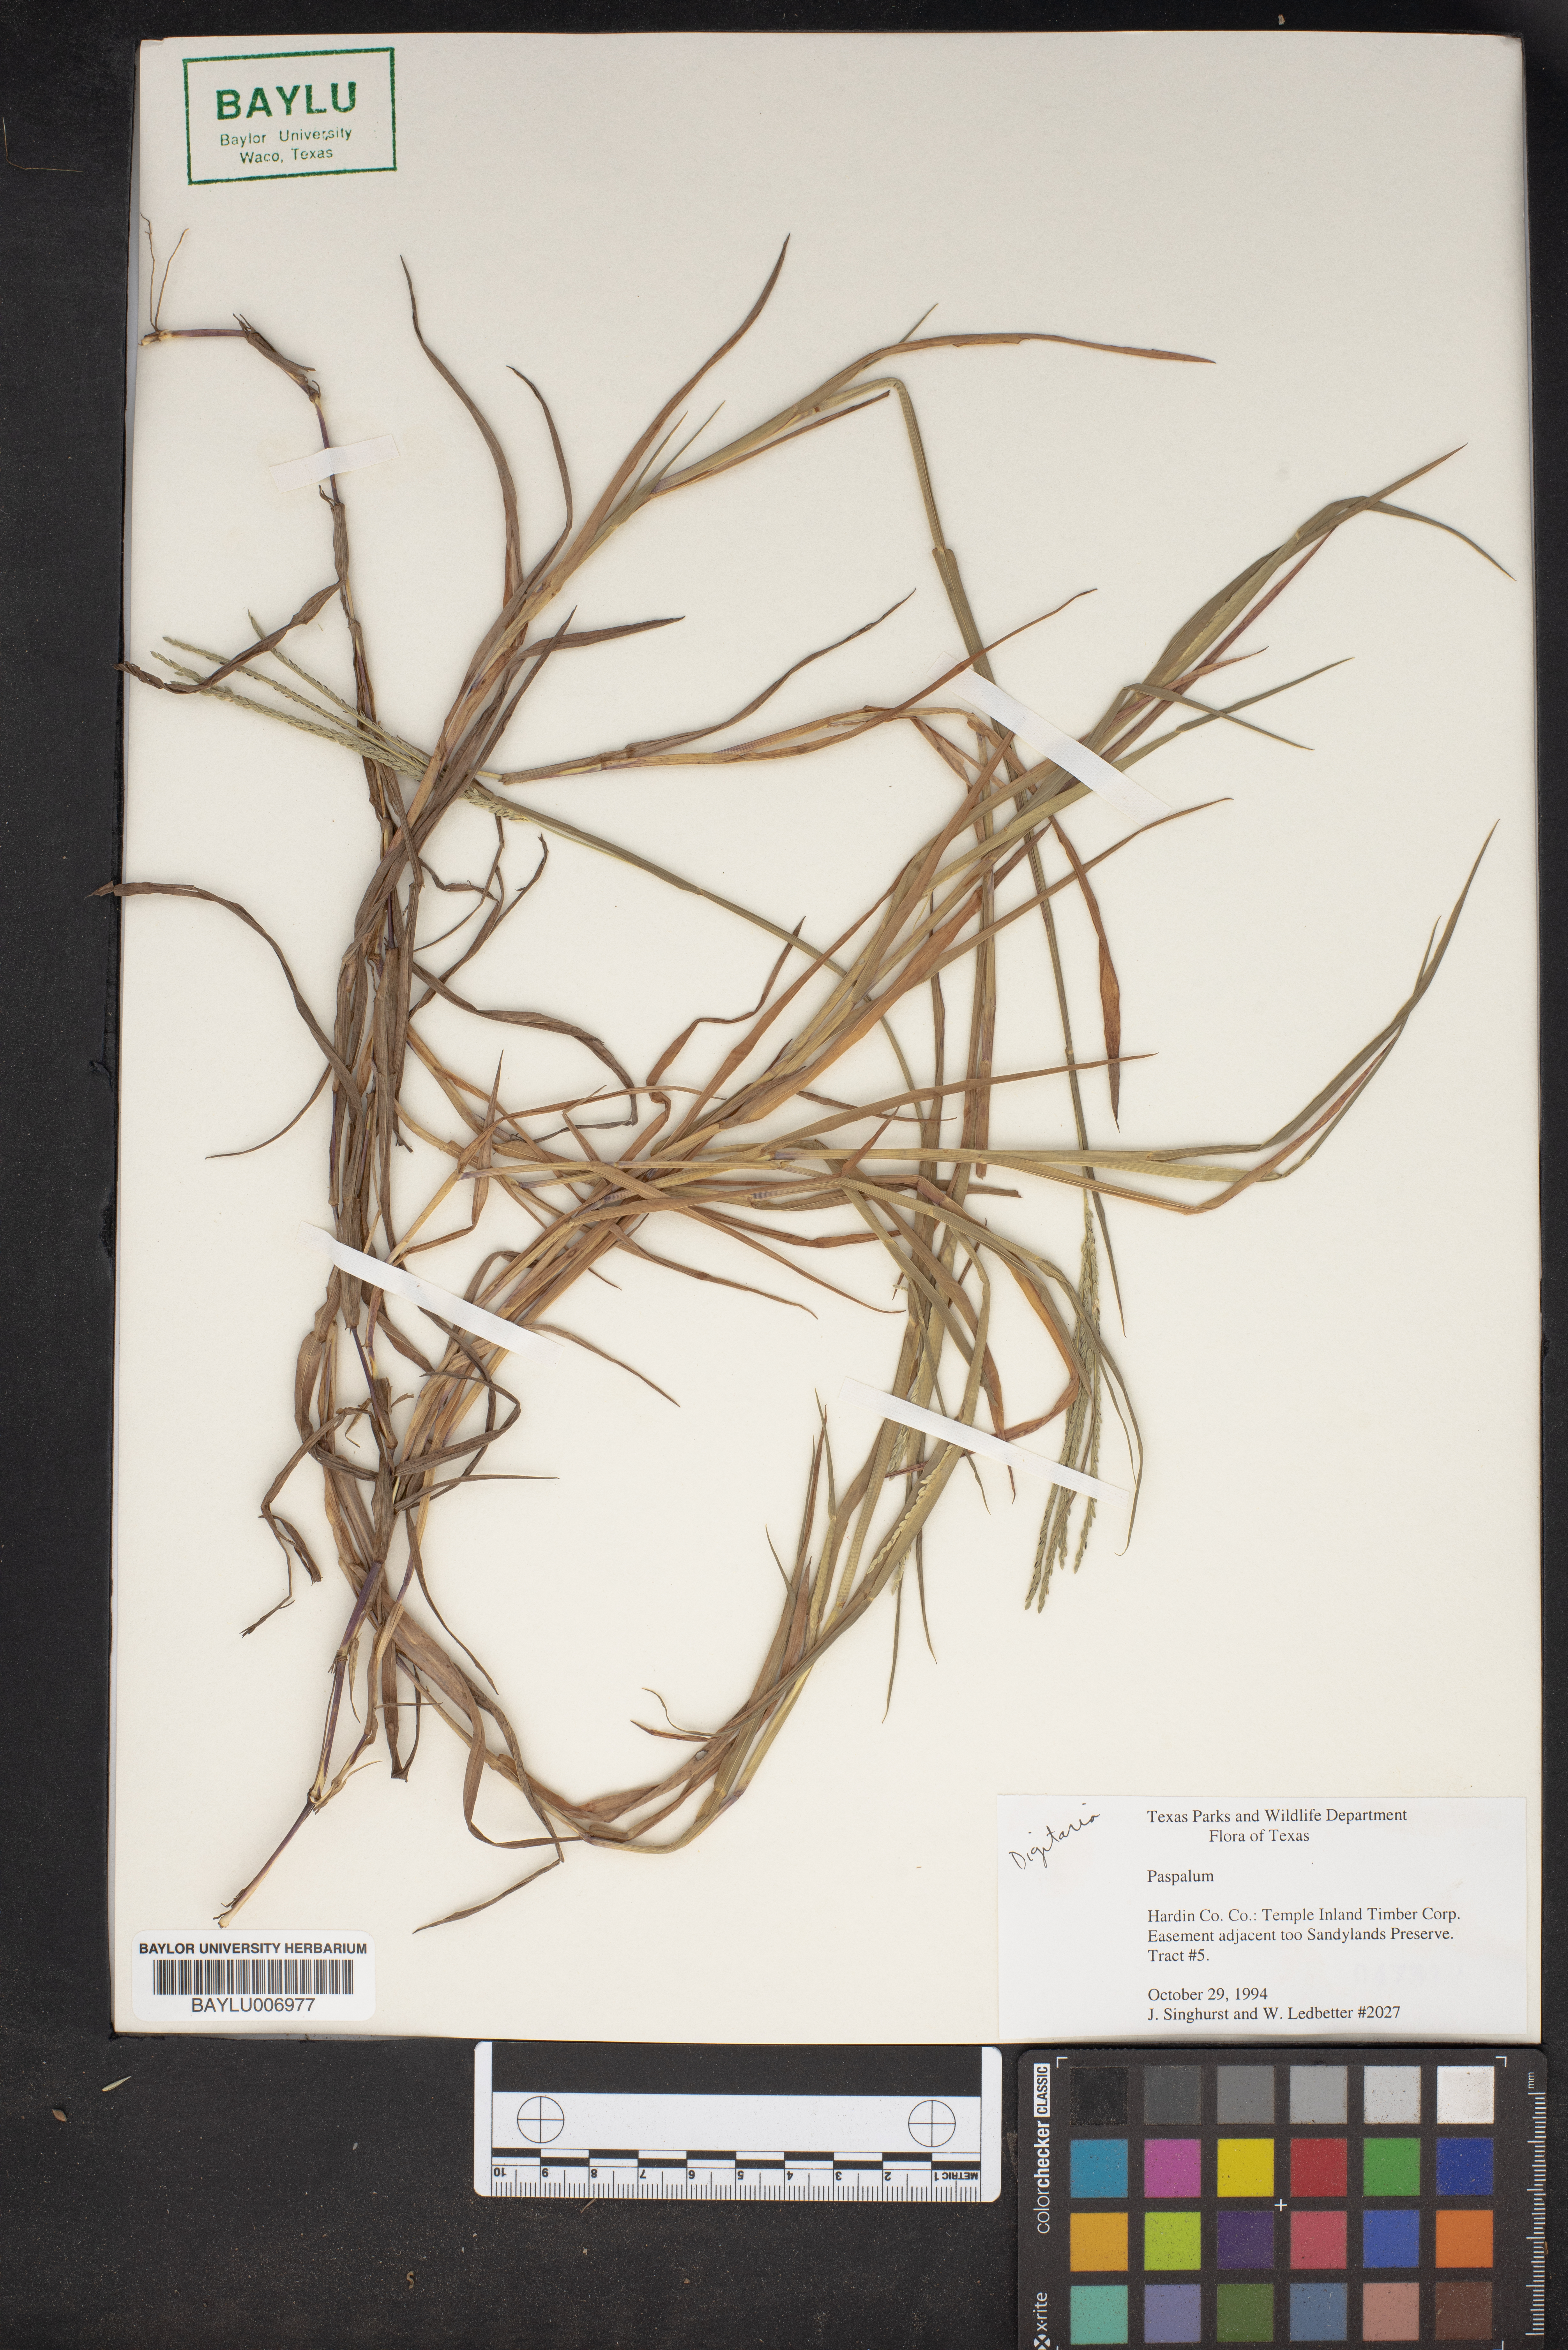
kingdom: Plantae
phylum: Tracheophyta
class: Liliopsida
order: Poales
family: Poaceae
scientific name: Poaceae
